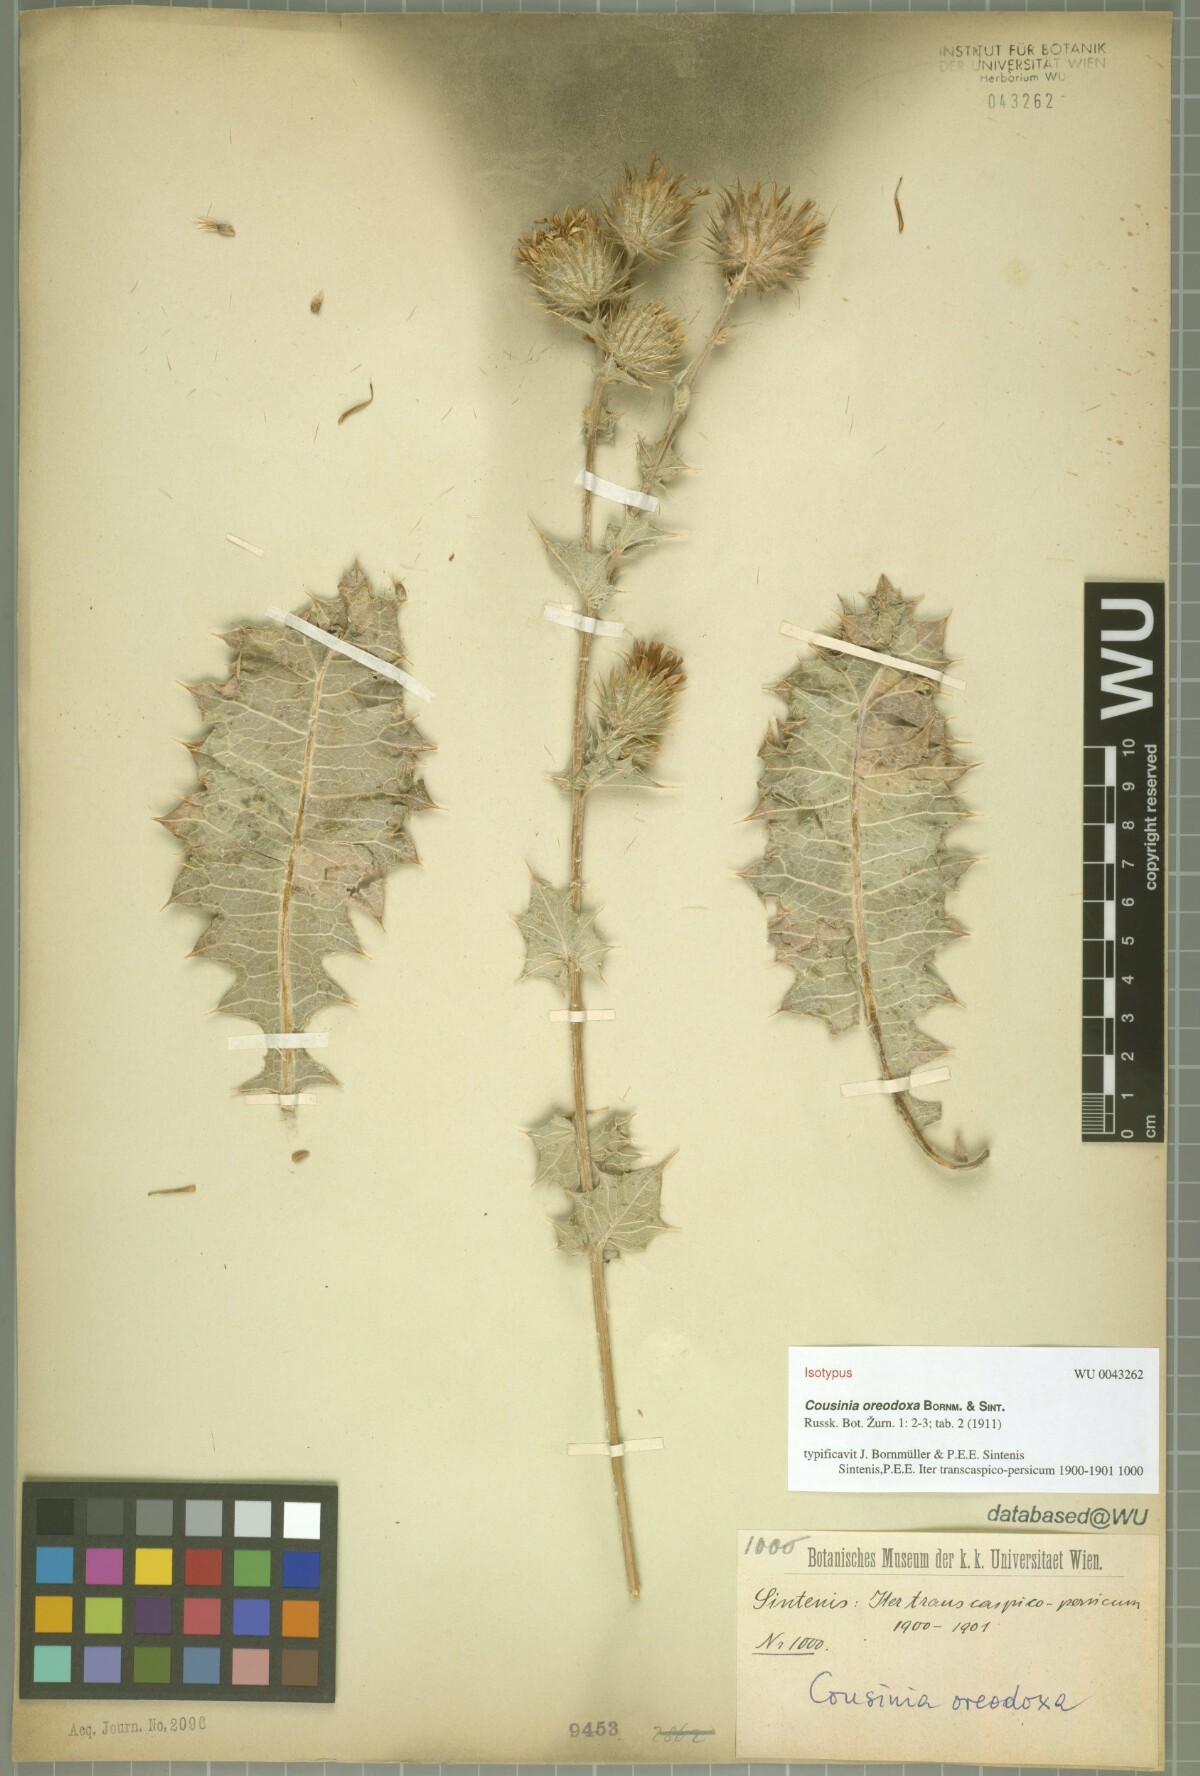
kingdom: Plantae
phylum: Tracheophyta
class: Magnoliopsida
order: Asterales
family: Asteraceae
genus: Cousinia
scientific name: Cousinia oreodoxa
